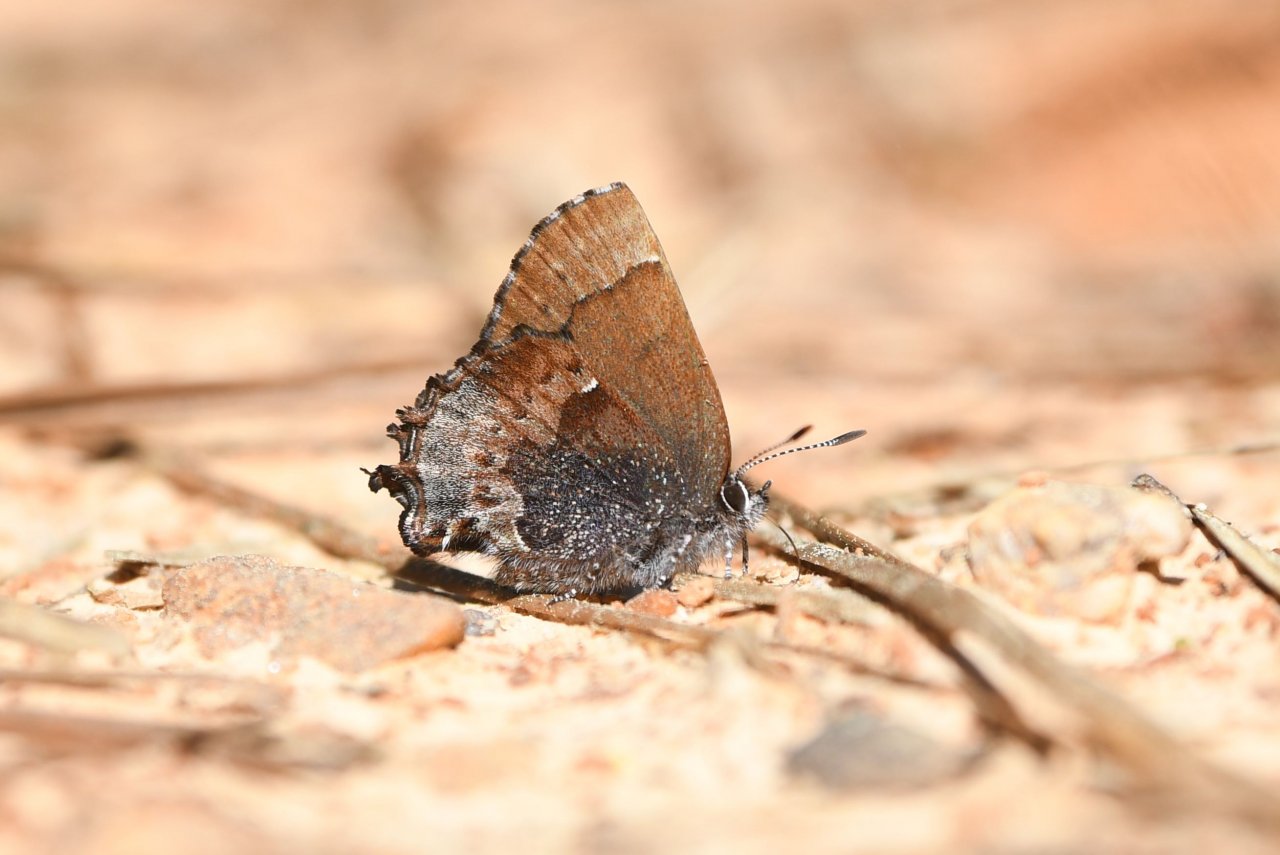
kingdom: Animalia
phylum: Arthropoda
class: Insecta
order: Lepidoptera
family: Lycaenidae
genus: Incisalia
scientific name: Incisalia henrici
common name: Henry's Elfin
